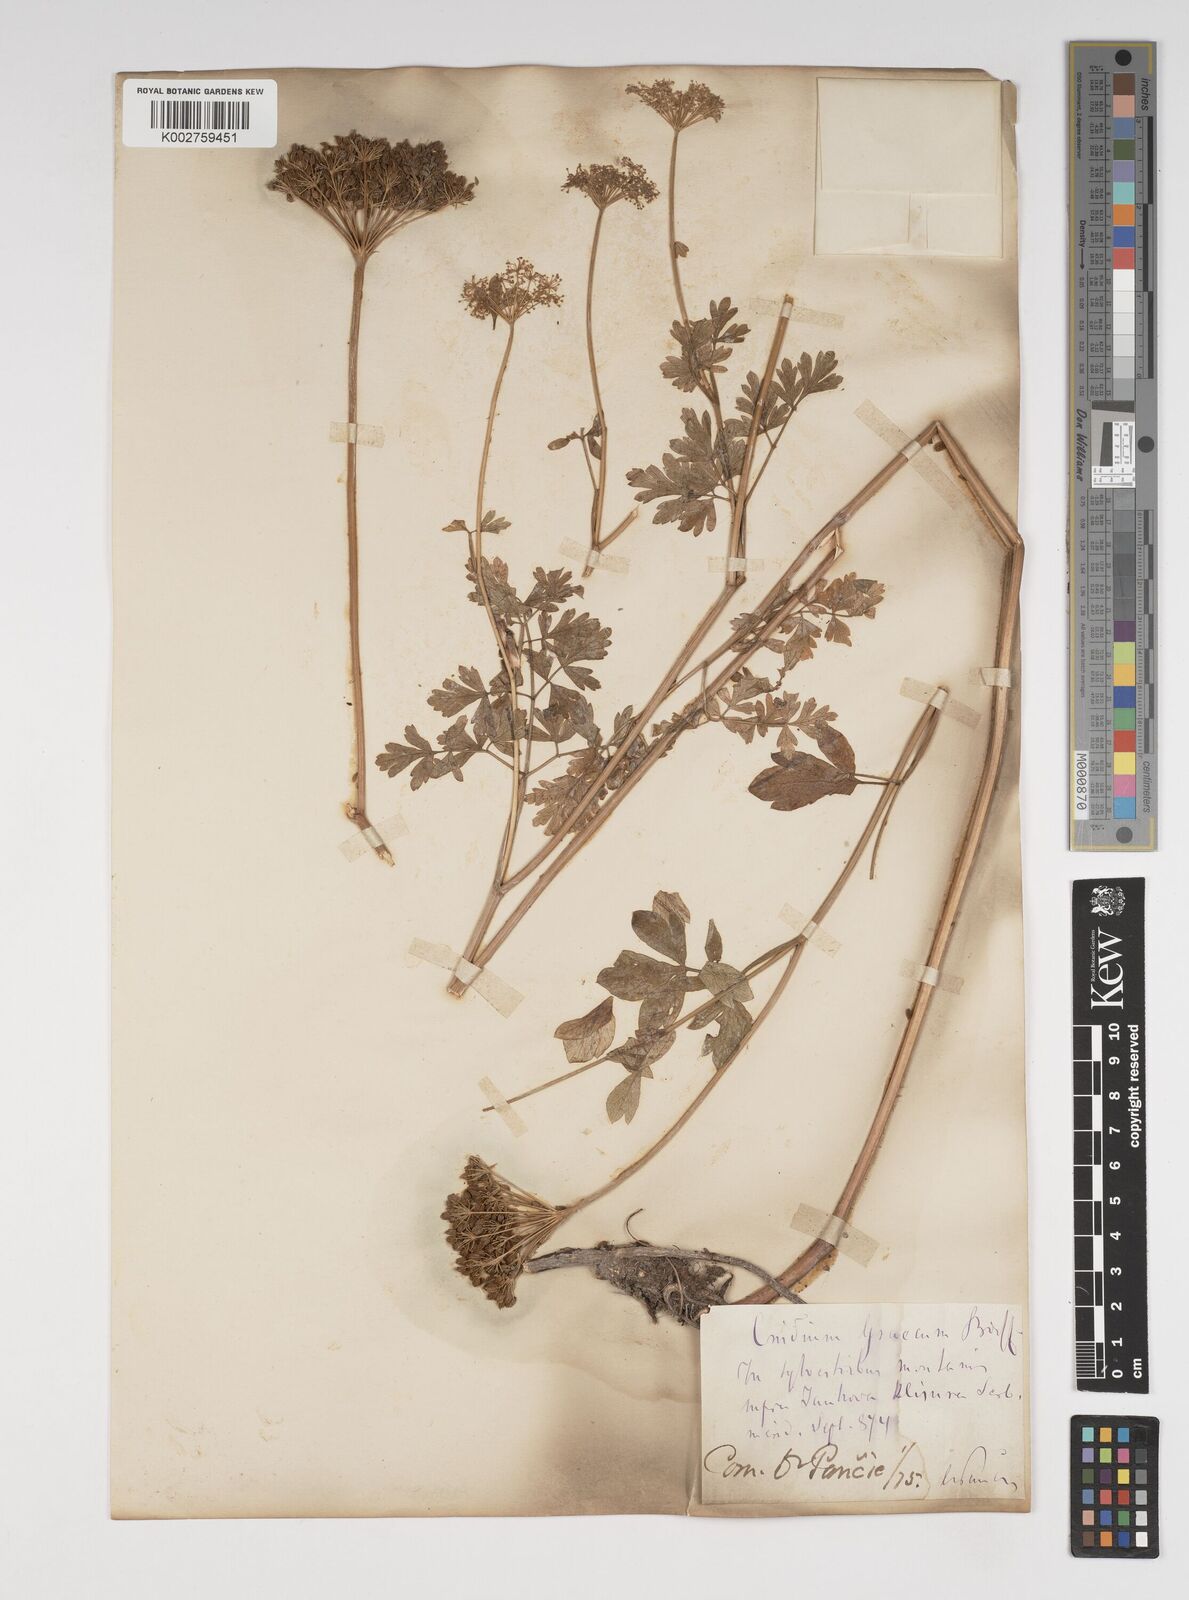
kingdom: Plantae
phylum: Tracheophyta
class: Magnoliopsida
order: Apiales
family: Apiaceae
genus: Selinum
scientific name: Selinum
